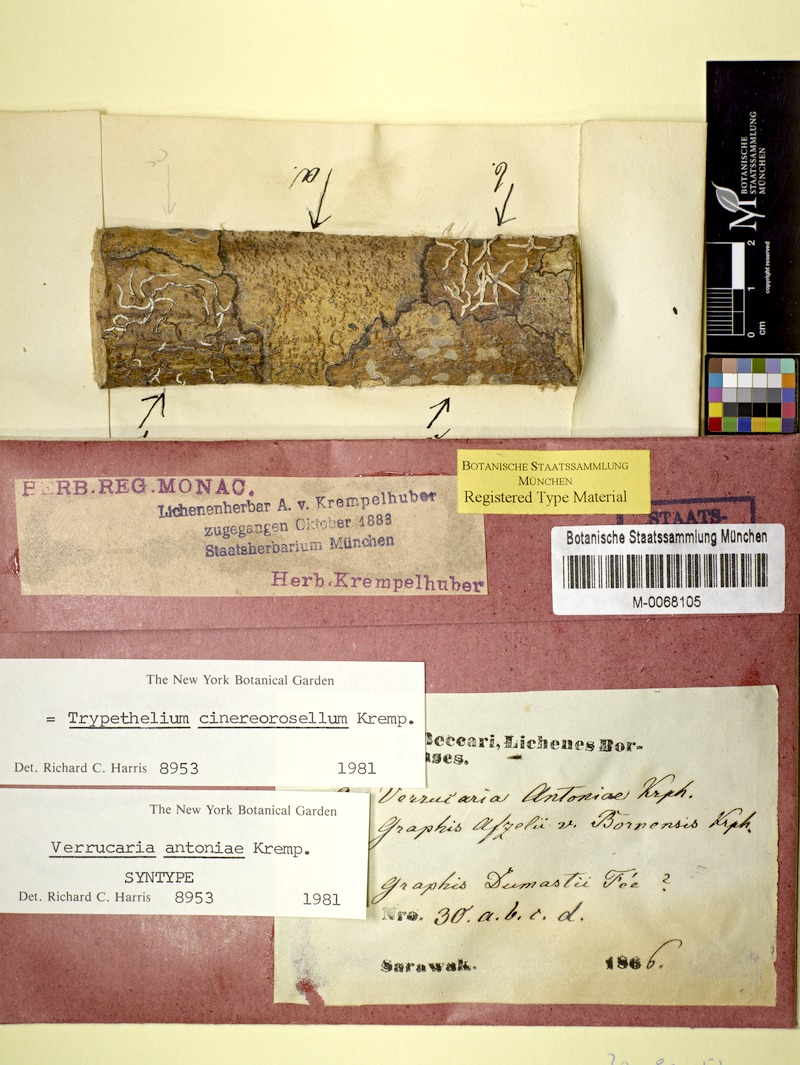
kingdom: Fungi
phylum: Ascomycota
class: Dothideomycetes
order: Trypetheliales
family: Trypetheliaceae
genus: Astrothelium
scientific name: Astrothelium cinereorosellum
